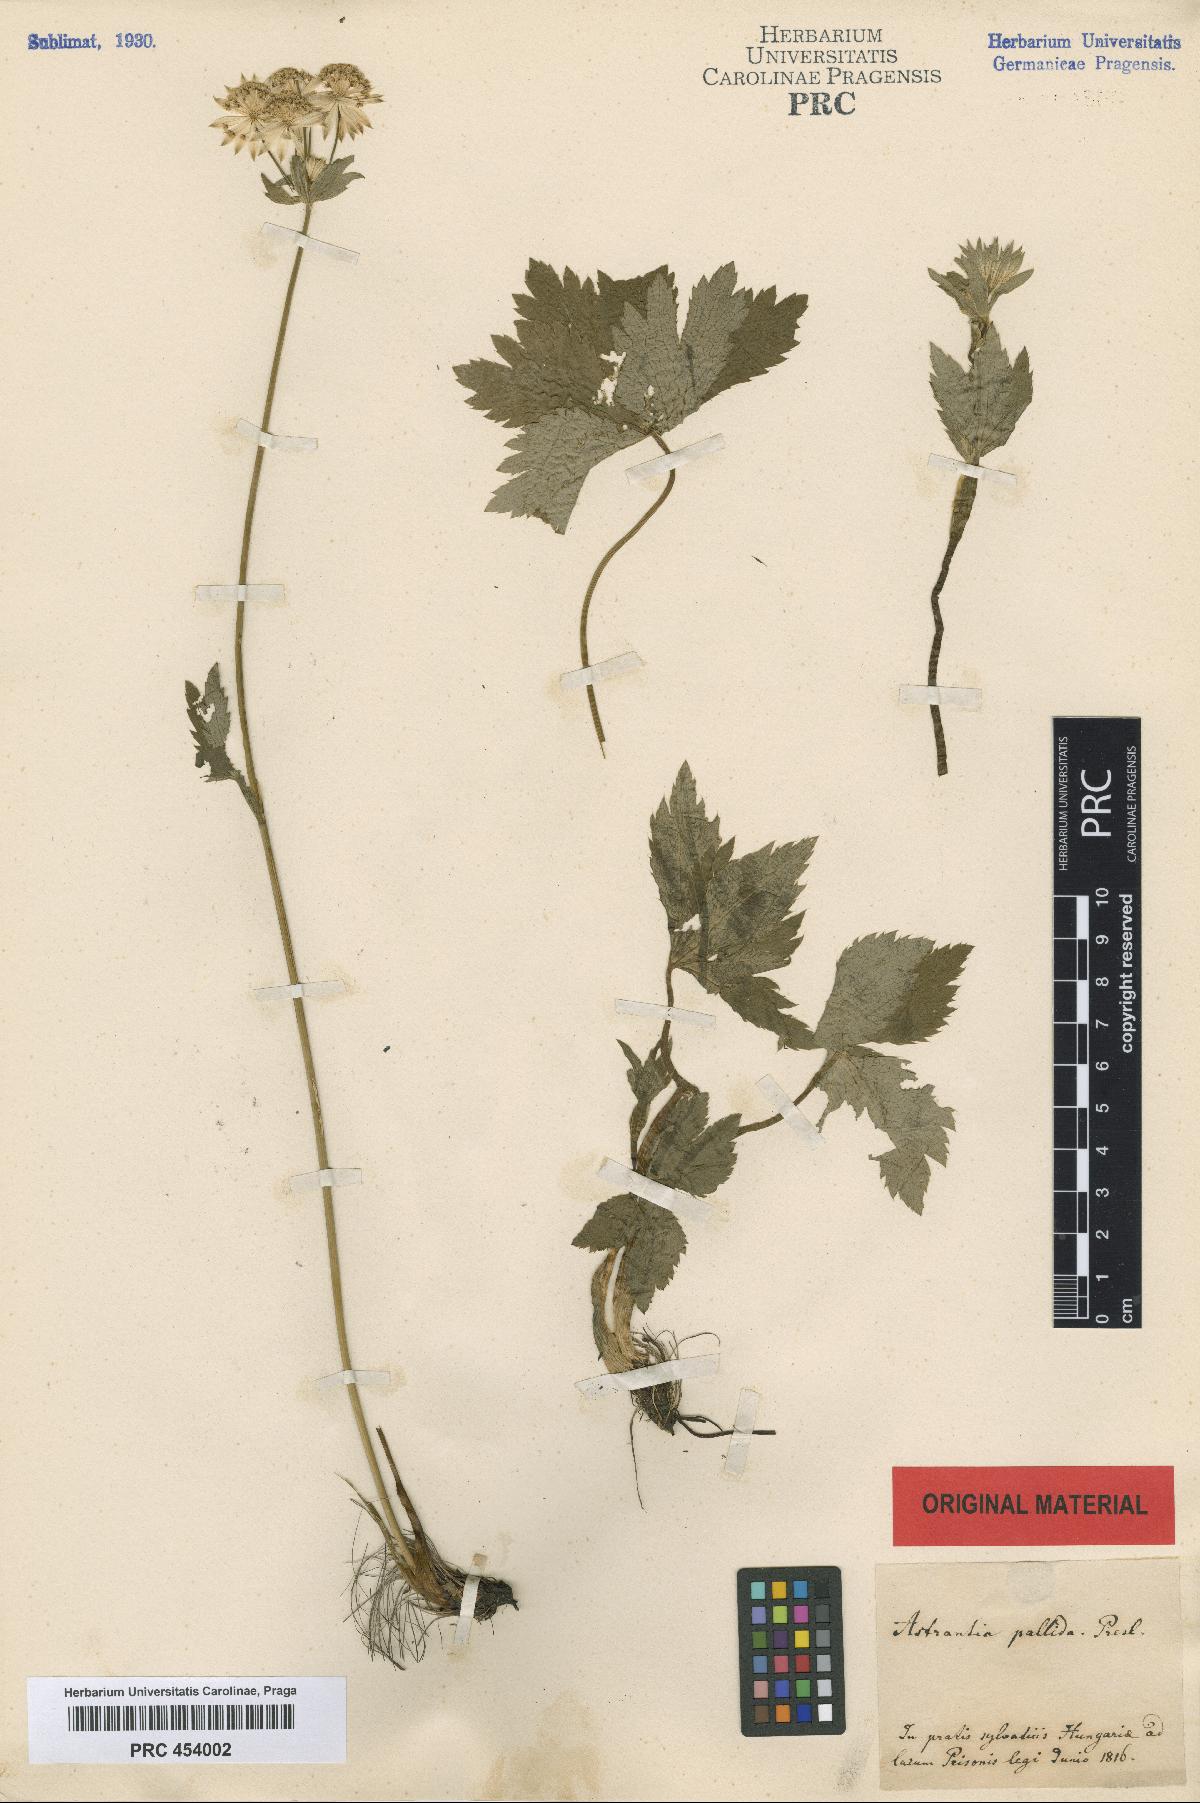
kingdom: Plantae
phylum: Tracheophyta
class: Magnoliopsida
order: Apiales
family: Apiaceae
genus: Astrantia
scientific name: Astrantia major
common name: Greater masterwort
